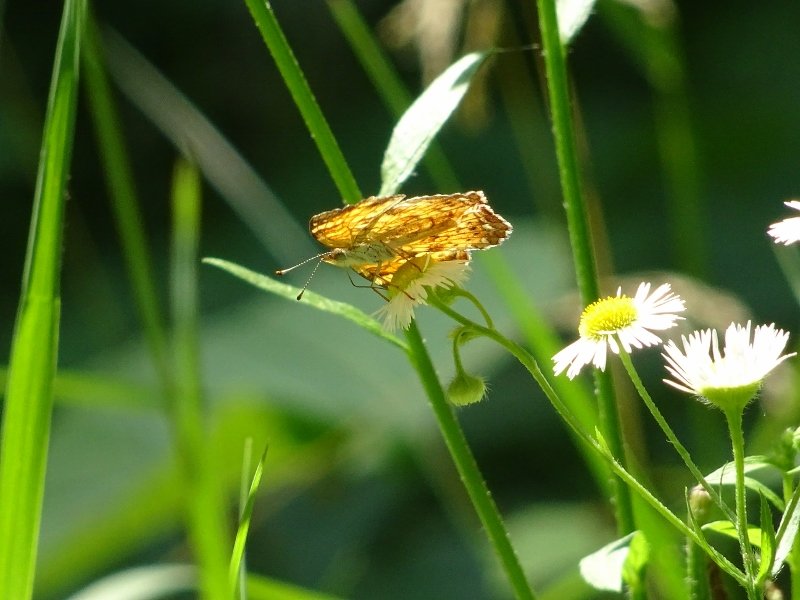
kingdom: Animalia
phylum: Arthropoda
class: Insecta
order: Lepidoptera
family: Nymphalidae
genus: Phyciodes
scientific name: Phyciodes tharos
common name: Northern Crescent
